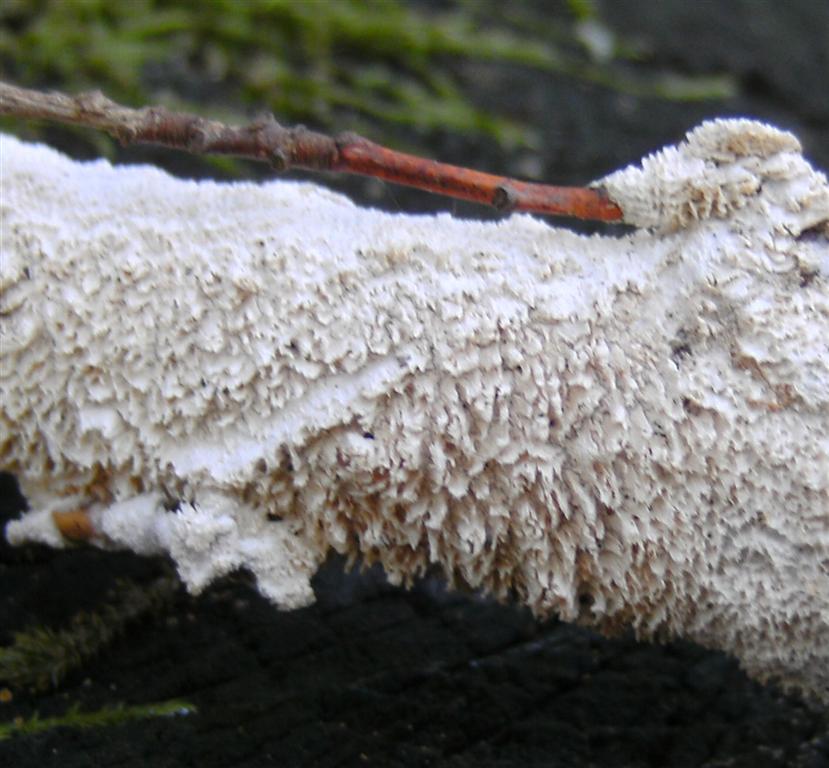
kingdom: Fungi
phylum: Basidiomycota
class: Agaricomycetes
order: Hymenochaetales
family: Schizoporaceae
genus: Schizopora
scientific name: Schizopora paradoxa
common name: hvid tandsvamp
